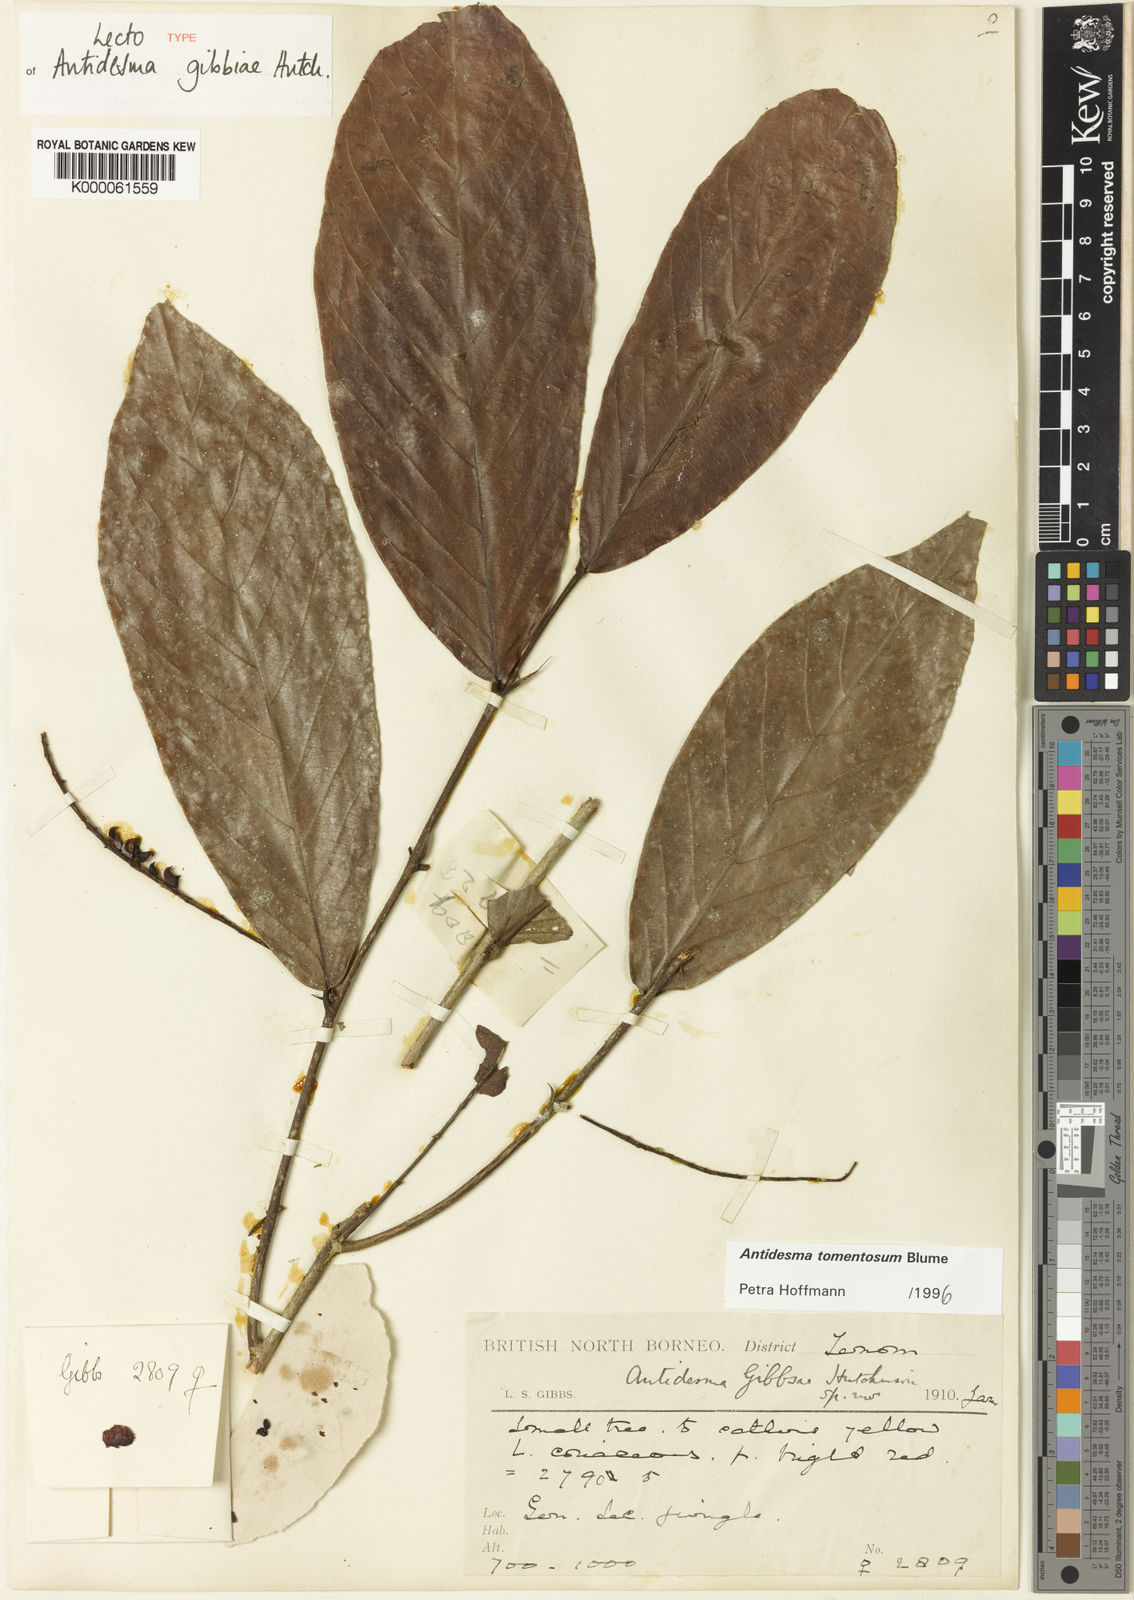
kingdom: Plantae
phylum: Tracheophyta
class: Magnoliopsida
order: Malpighiales
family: Phyllanthaceae
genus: Antidesma
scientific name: Antidesma tomentosum
